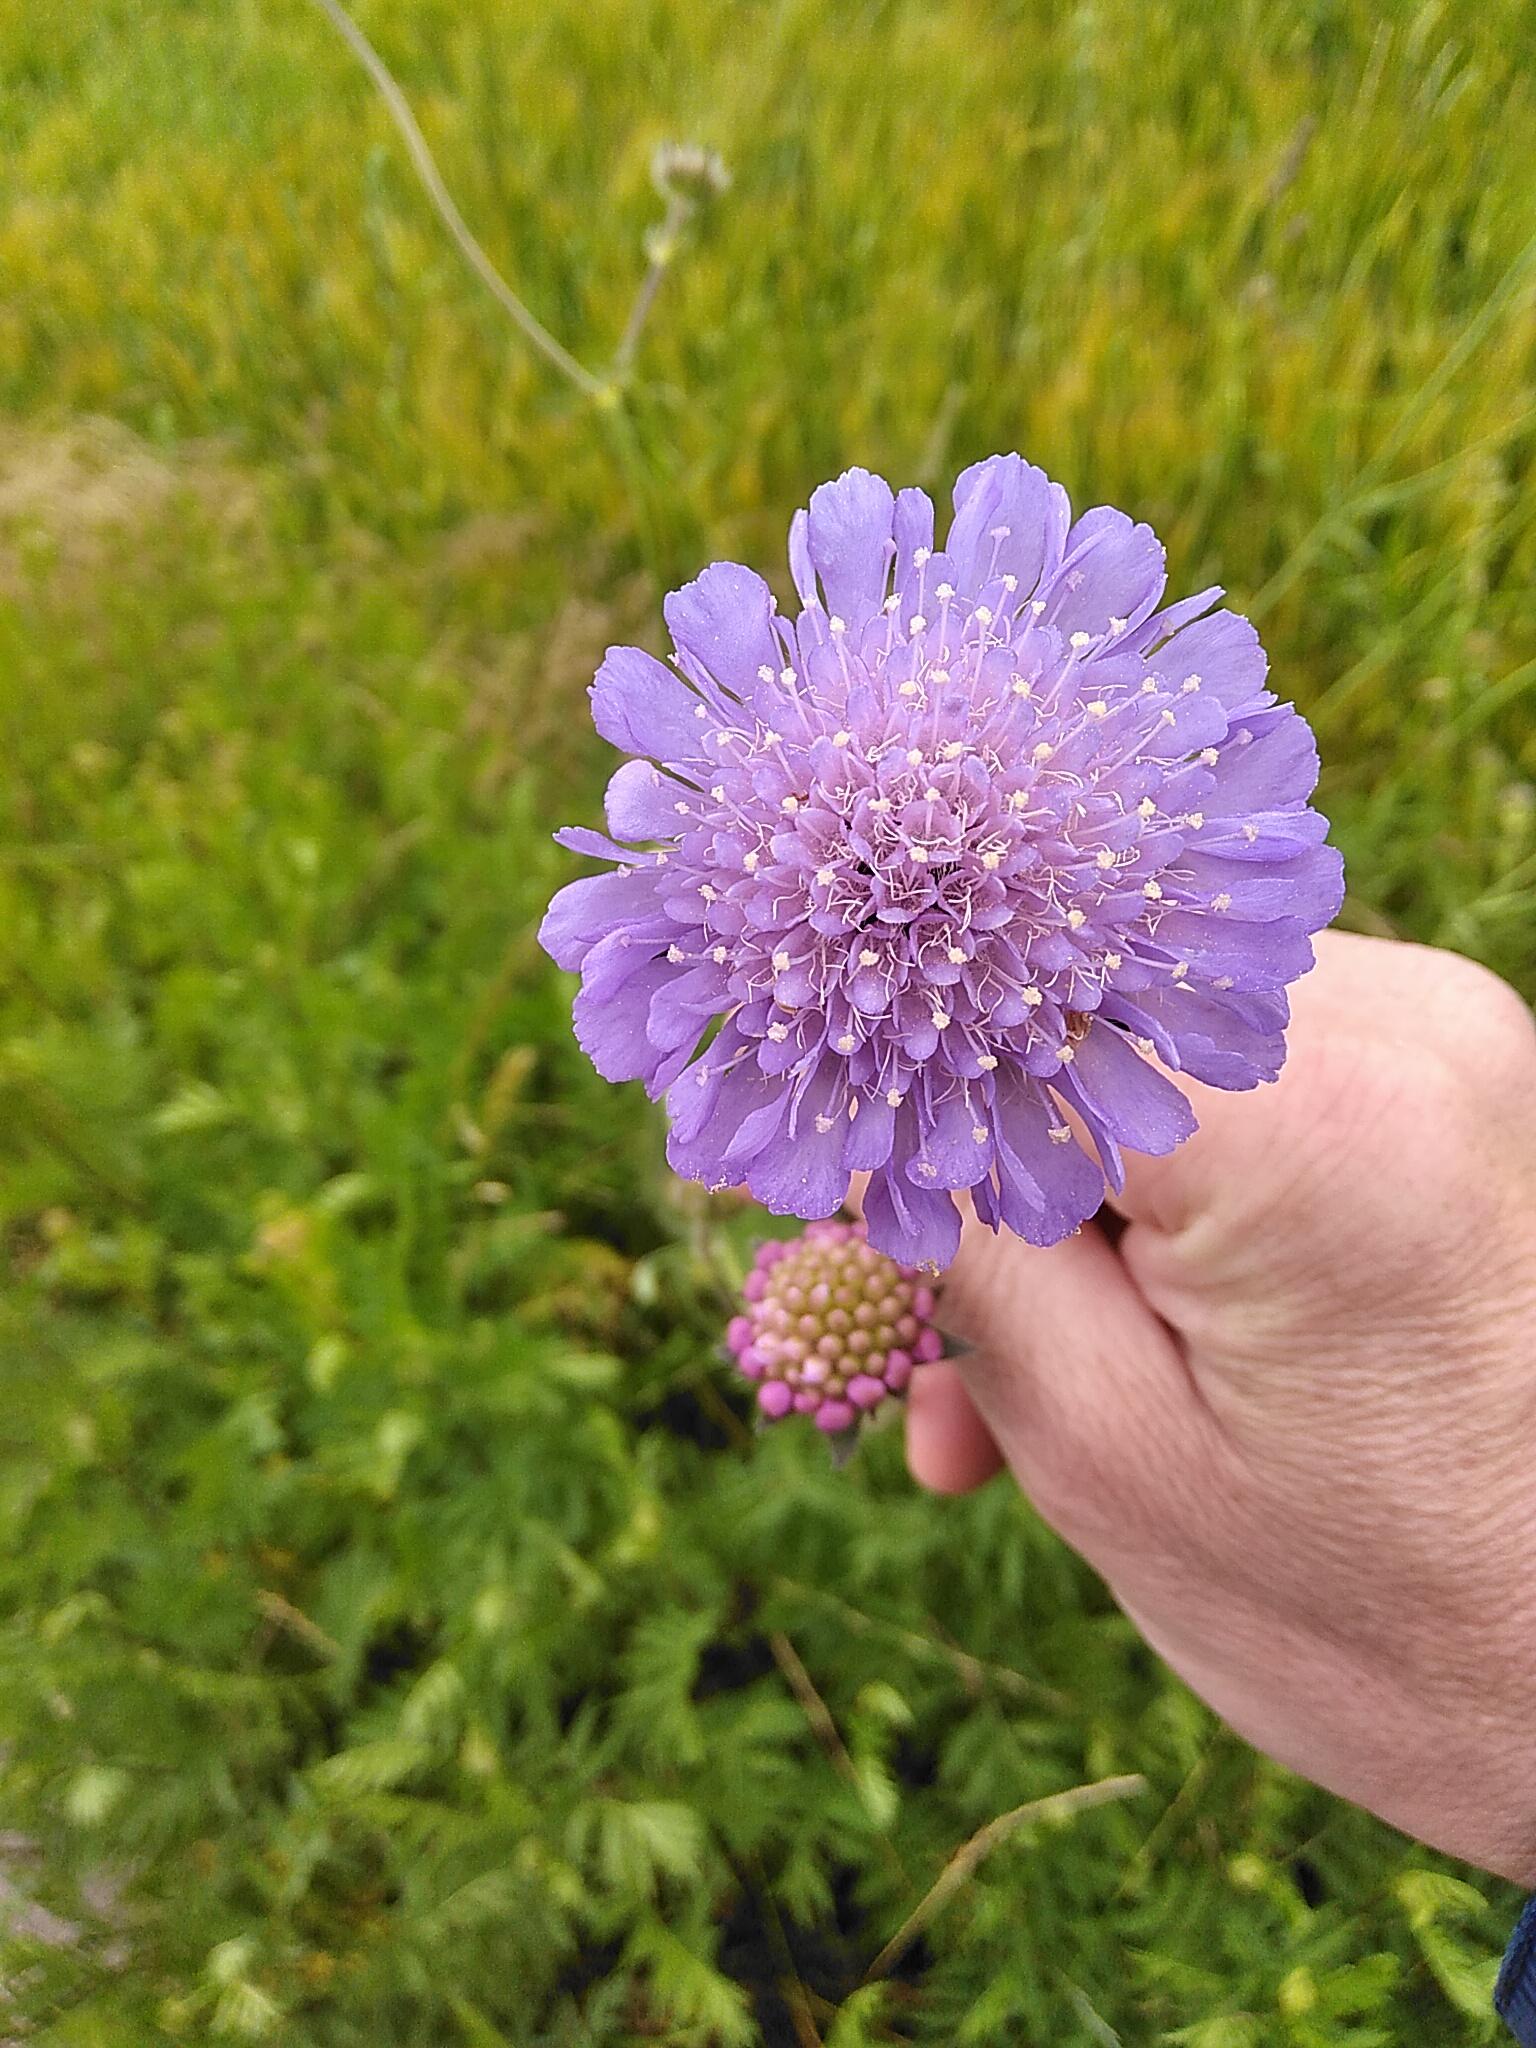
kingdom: Plantae
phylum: Tracheophyta
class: Magnoliopsida
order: Dipsacales
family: Caprifoliaceae
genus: Knautia
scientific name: Knautia arvensis
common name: Blåhat
